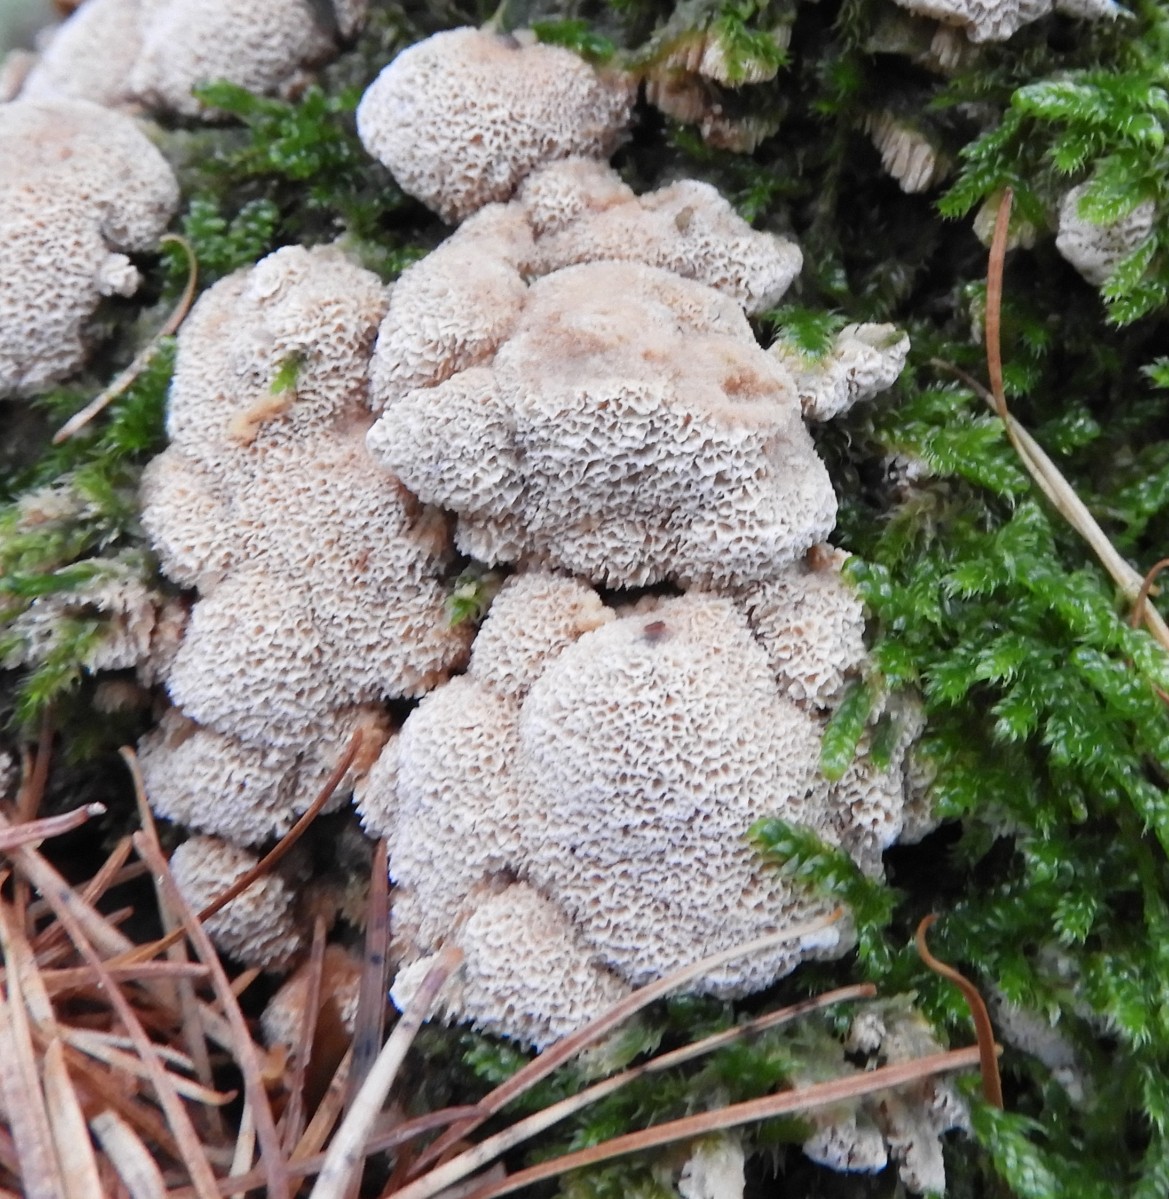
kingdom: Fungi
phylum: Basidiomycota
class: Agaricomycetes
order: Polyporales
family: Fomitopsidaceae
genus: Daedalea
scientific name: Daedalea quercina
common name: ege-labyrintsvamp
